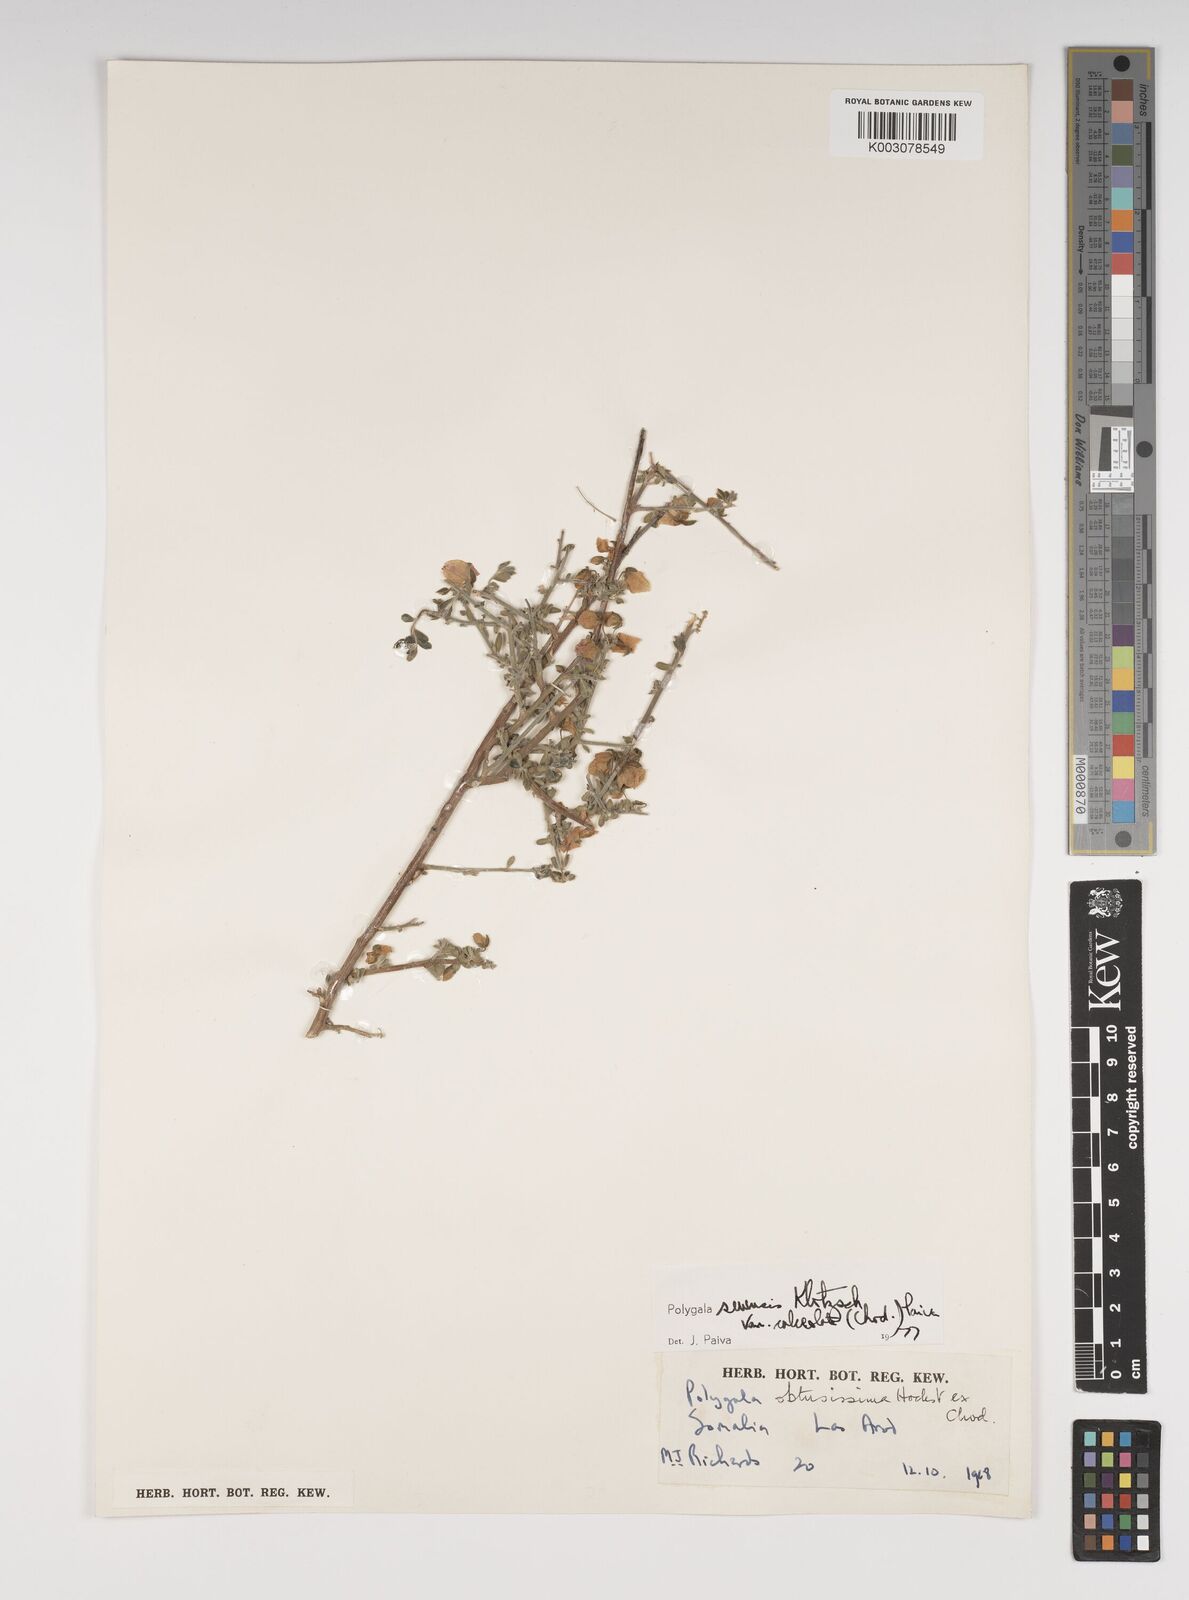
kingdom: Plantae
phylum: Tracheophyta
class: Magnoliopsida
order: Fabales
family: Polygalaceae
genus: Polygala
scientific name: Polygala obtusissima
